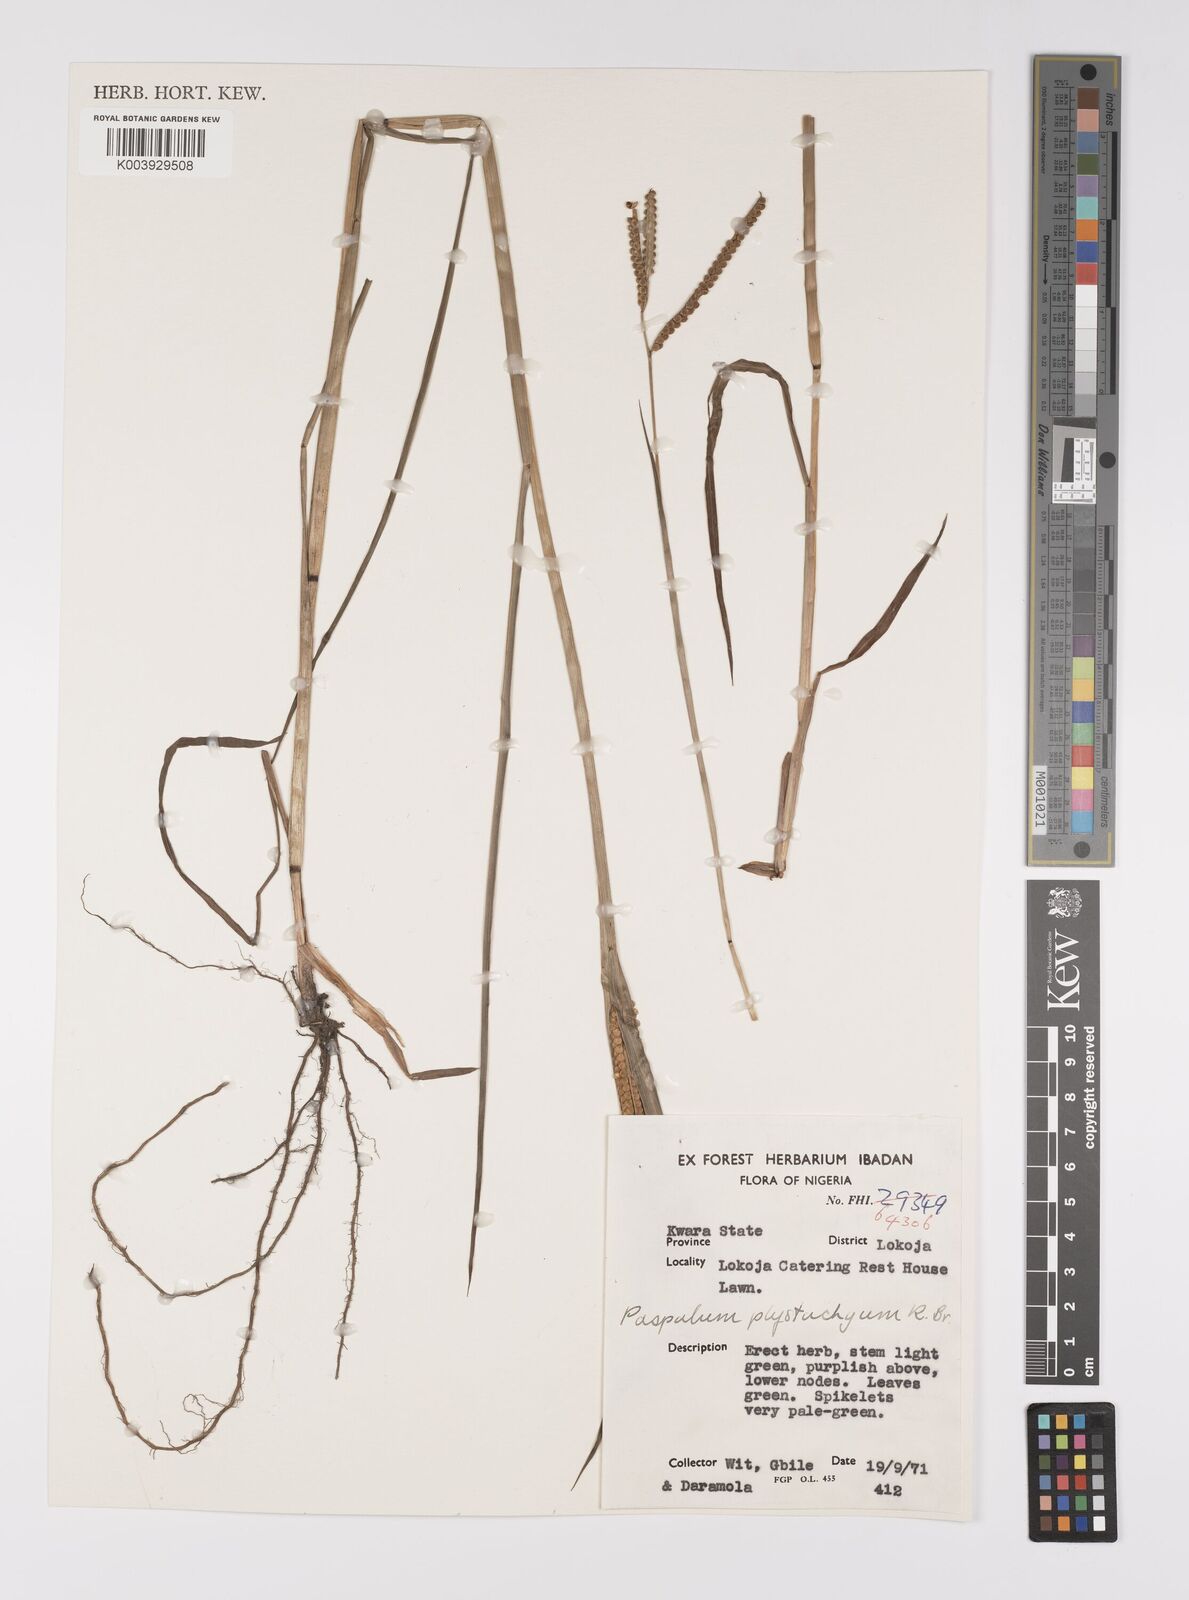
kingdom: Plantae
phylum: Tracheophyta
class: Liliopsida
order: Poales
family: Poaceae
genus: Paspalum
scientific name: Paspalum scrobiculatum
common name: Kodo millet
